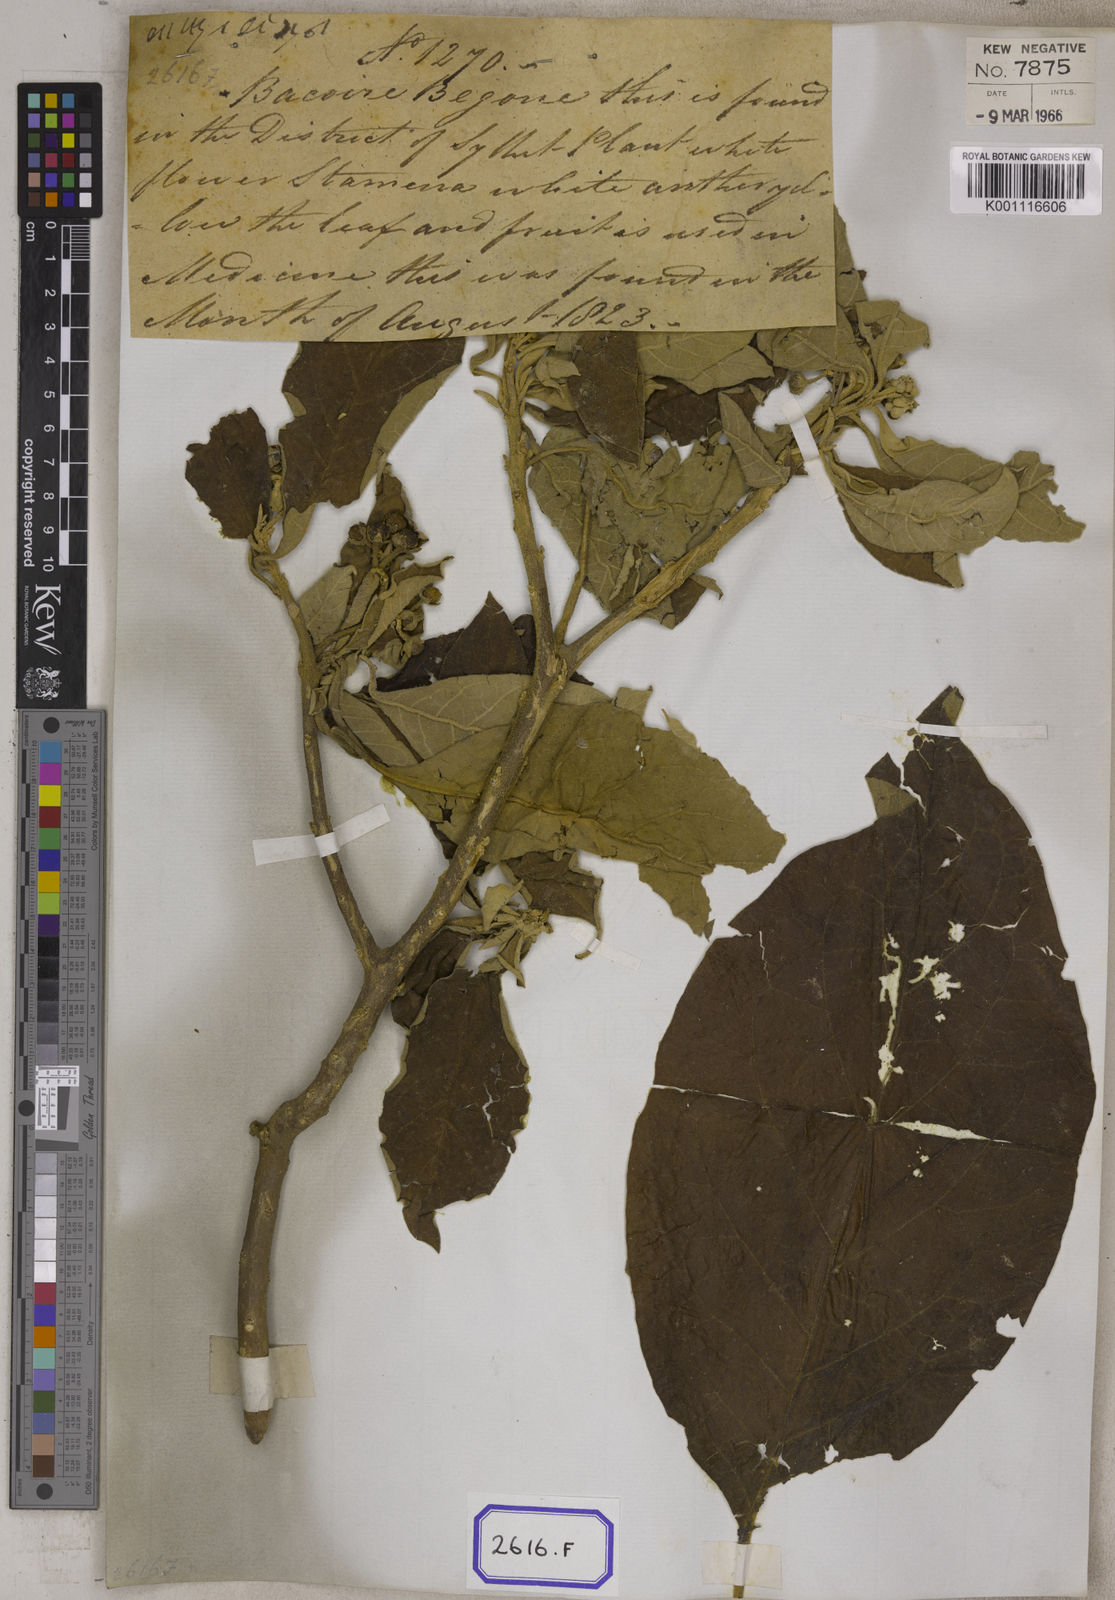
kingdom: Plantae
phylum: Tracheophyta
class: Magnoliopsida
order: Solanales
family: Solanaceae
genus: Solanum
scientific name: Solanum donianum
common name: Mullein nightshade
